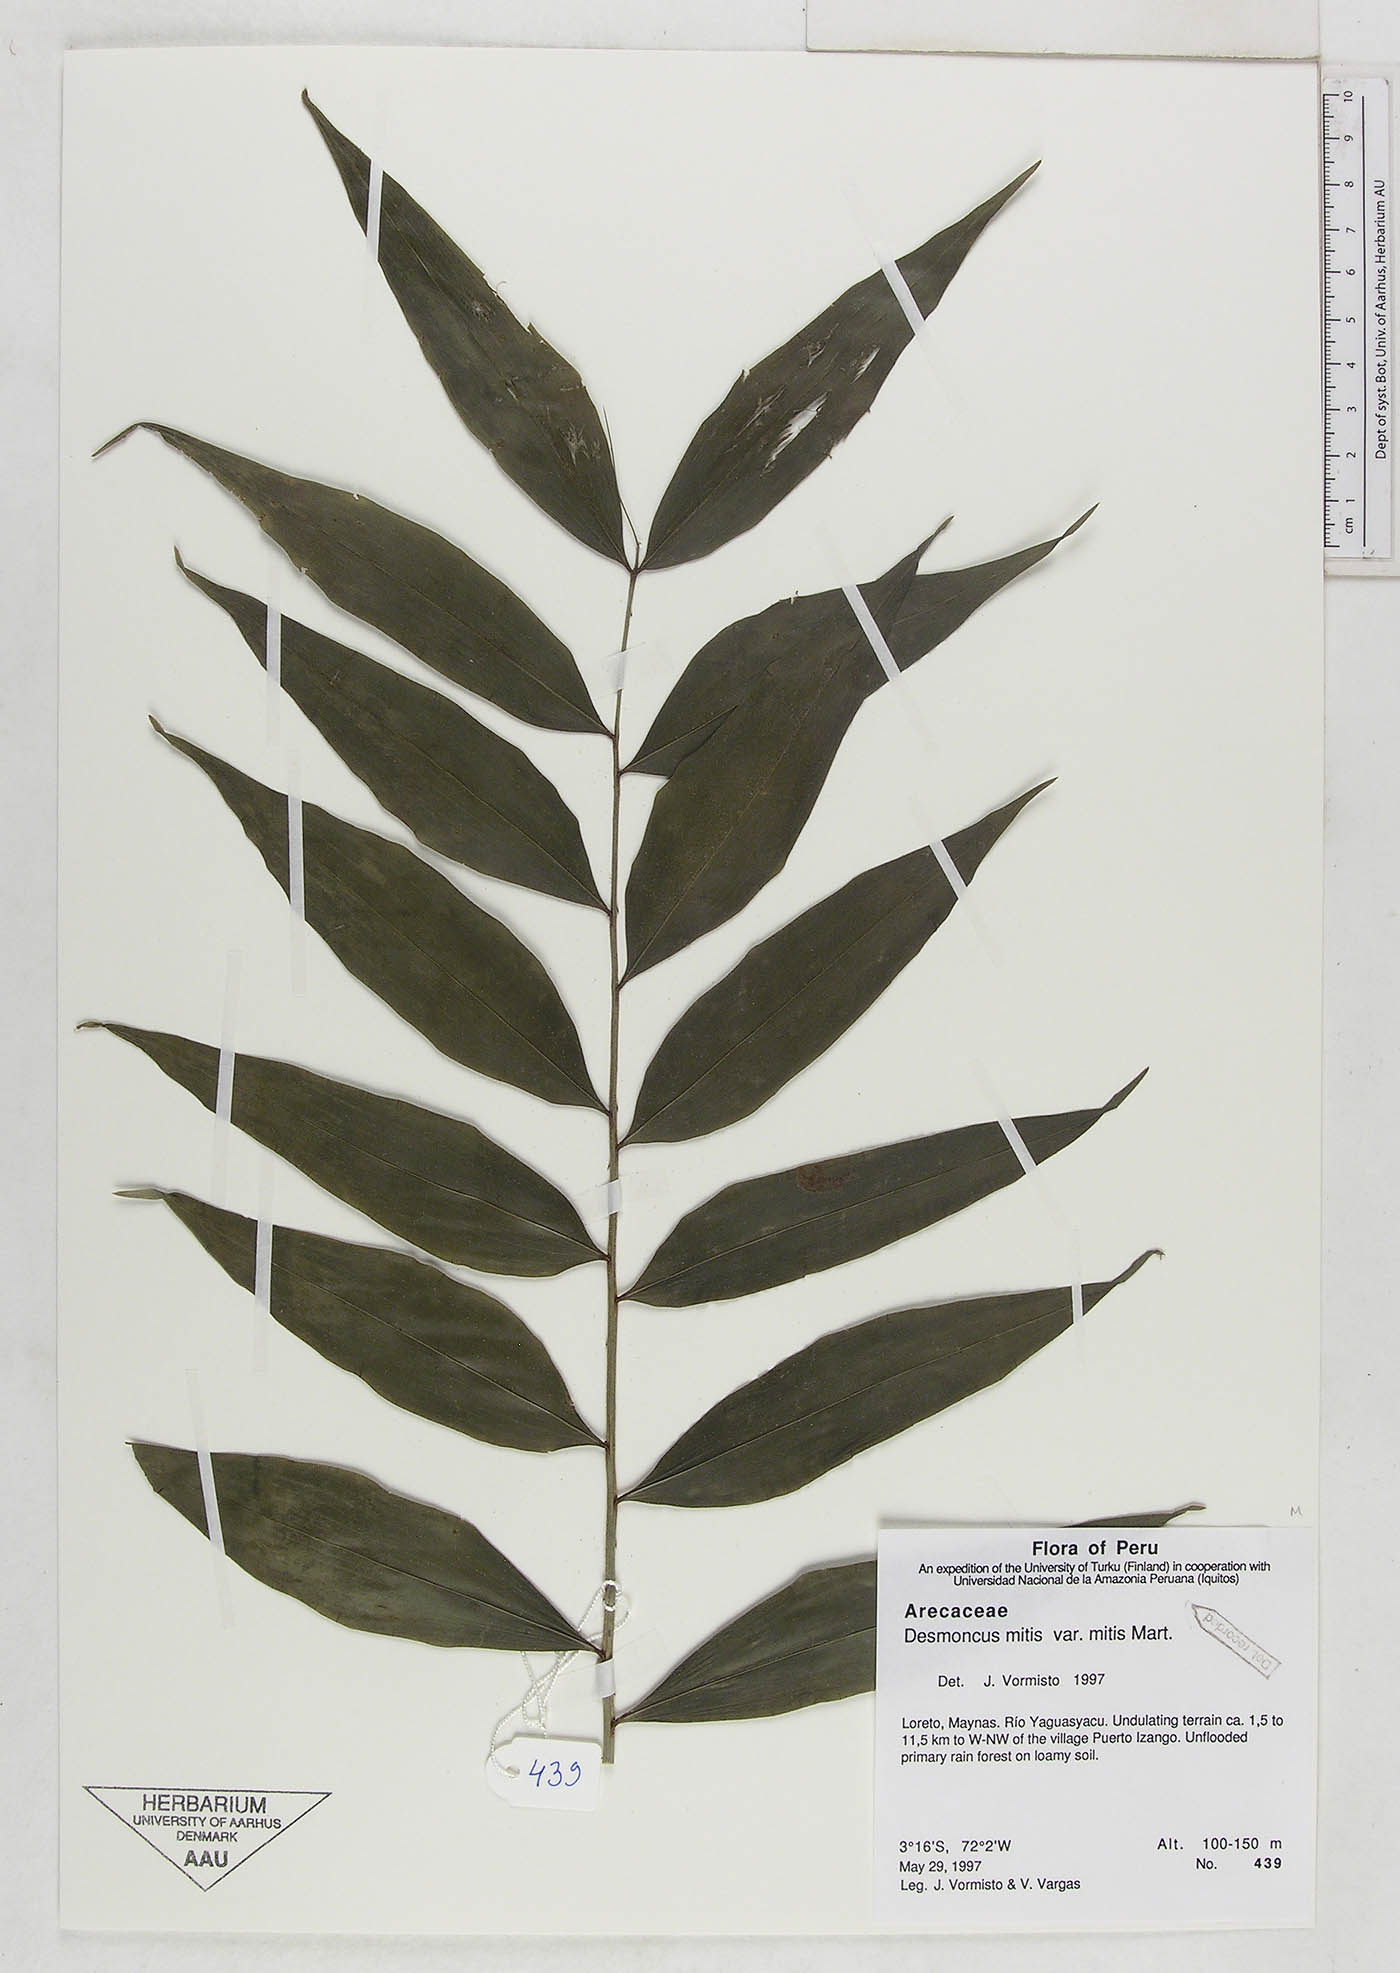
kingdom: Plantae
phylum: Tracheophyta
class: Liliopsida
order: Arecales
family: Arecaceae
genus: Desmoncus
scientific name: Desmoncus mitis
